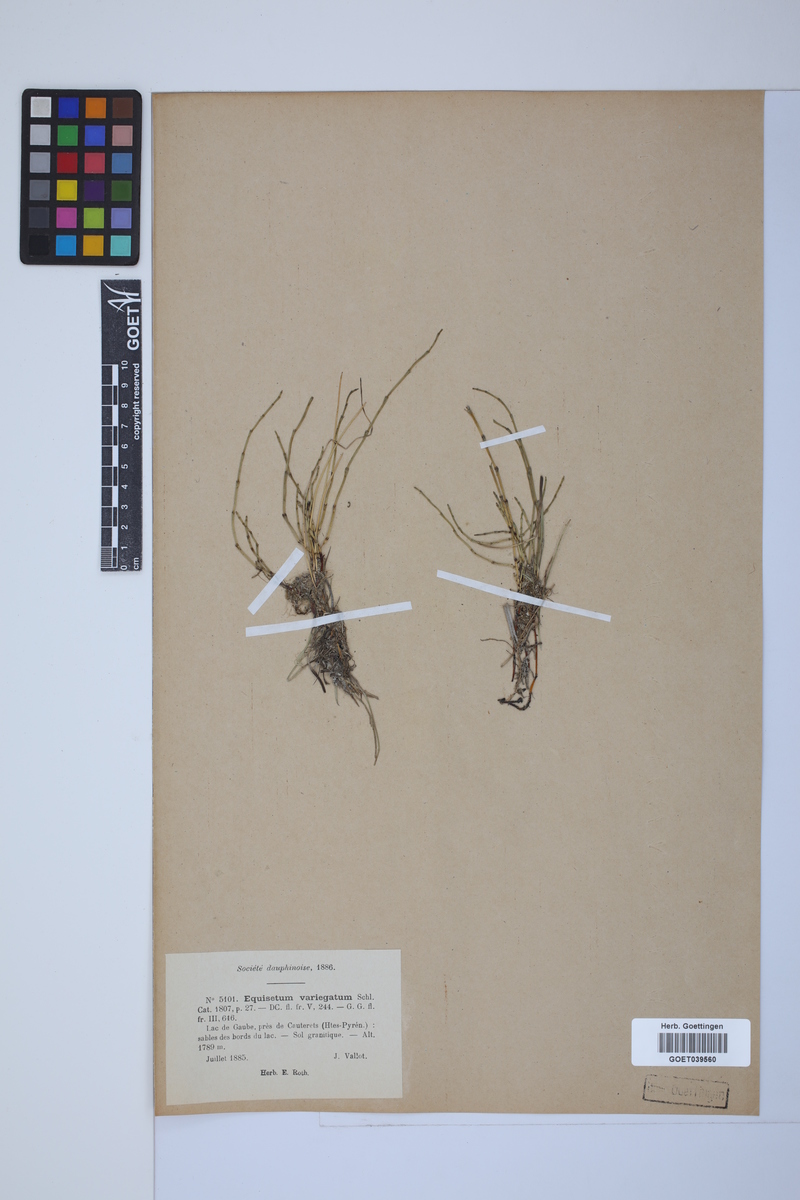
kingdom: Plantae
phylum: Tracheophyta
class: Polypodiopsida
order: Equisetales
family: Equisetaceae
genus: Equisetum
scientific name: Equisetum variegatum
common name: Variegated horsetail
